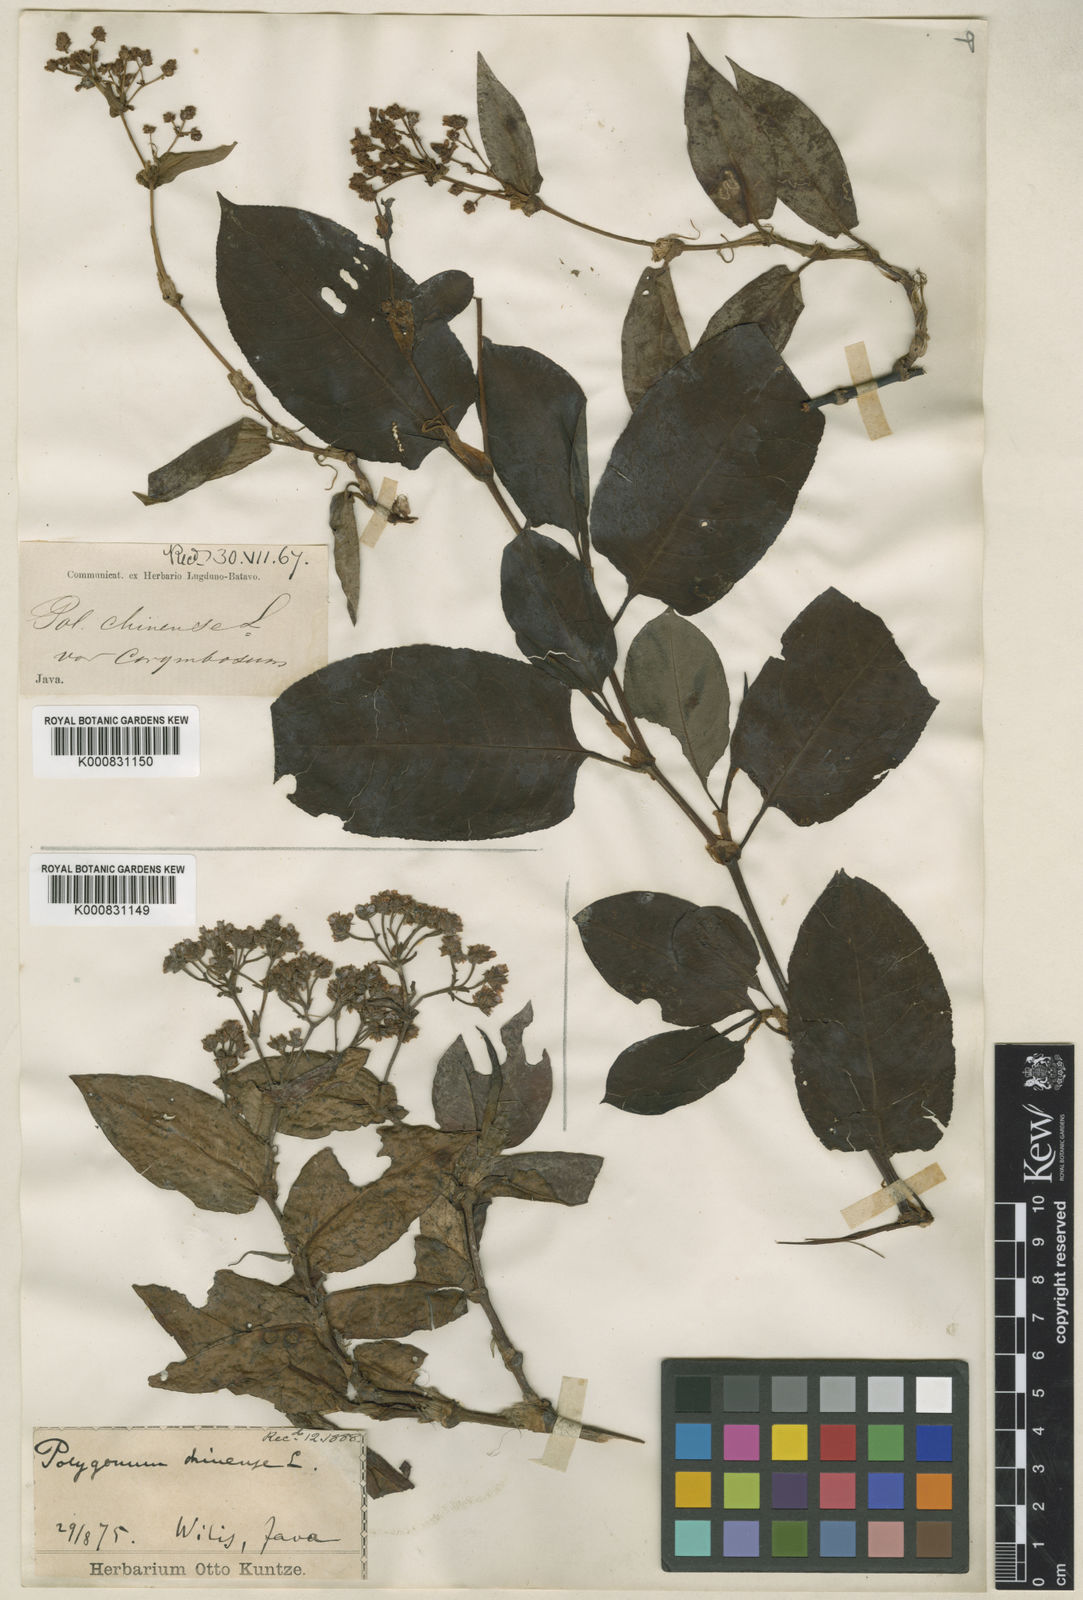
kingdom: Plantae
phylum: Tracheophyta
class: Magnoliopsida
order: Caryophyllales
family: Polygonaceae
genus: Persicaria
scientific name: Persicaria chinensis
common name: Chinese knotweed
